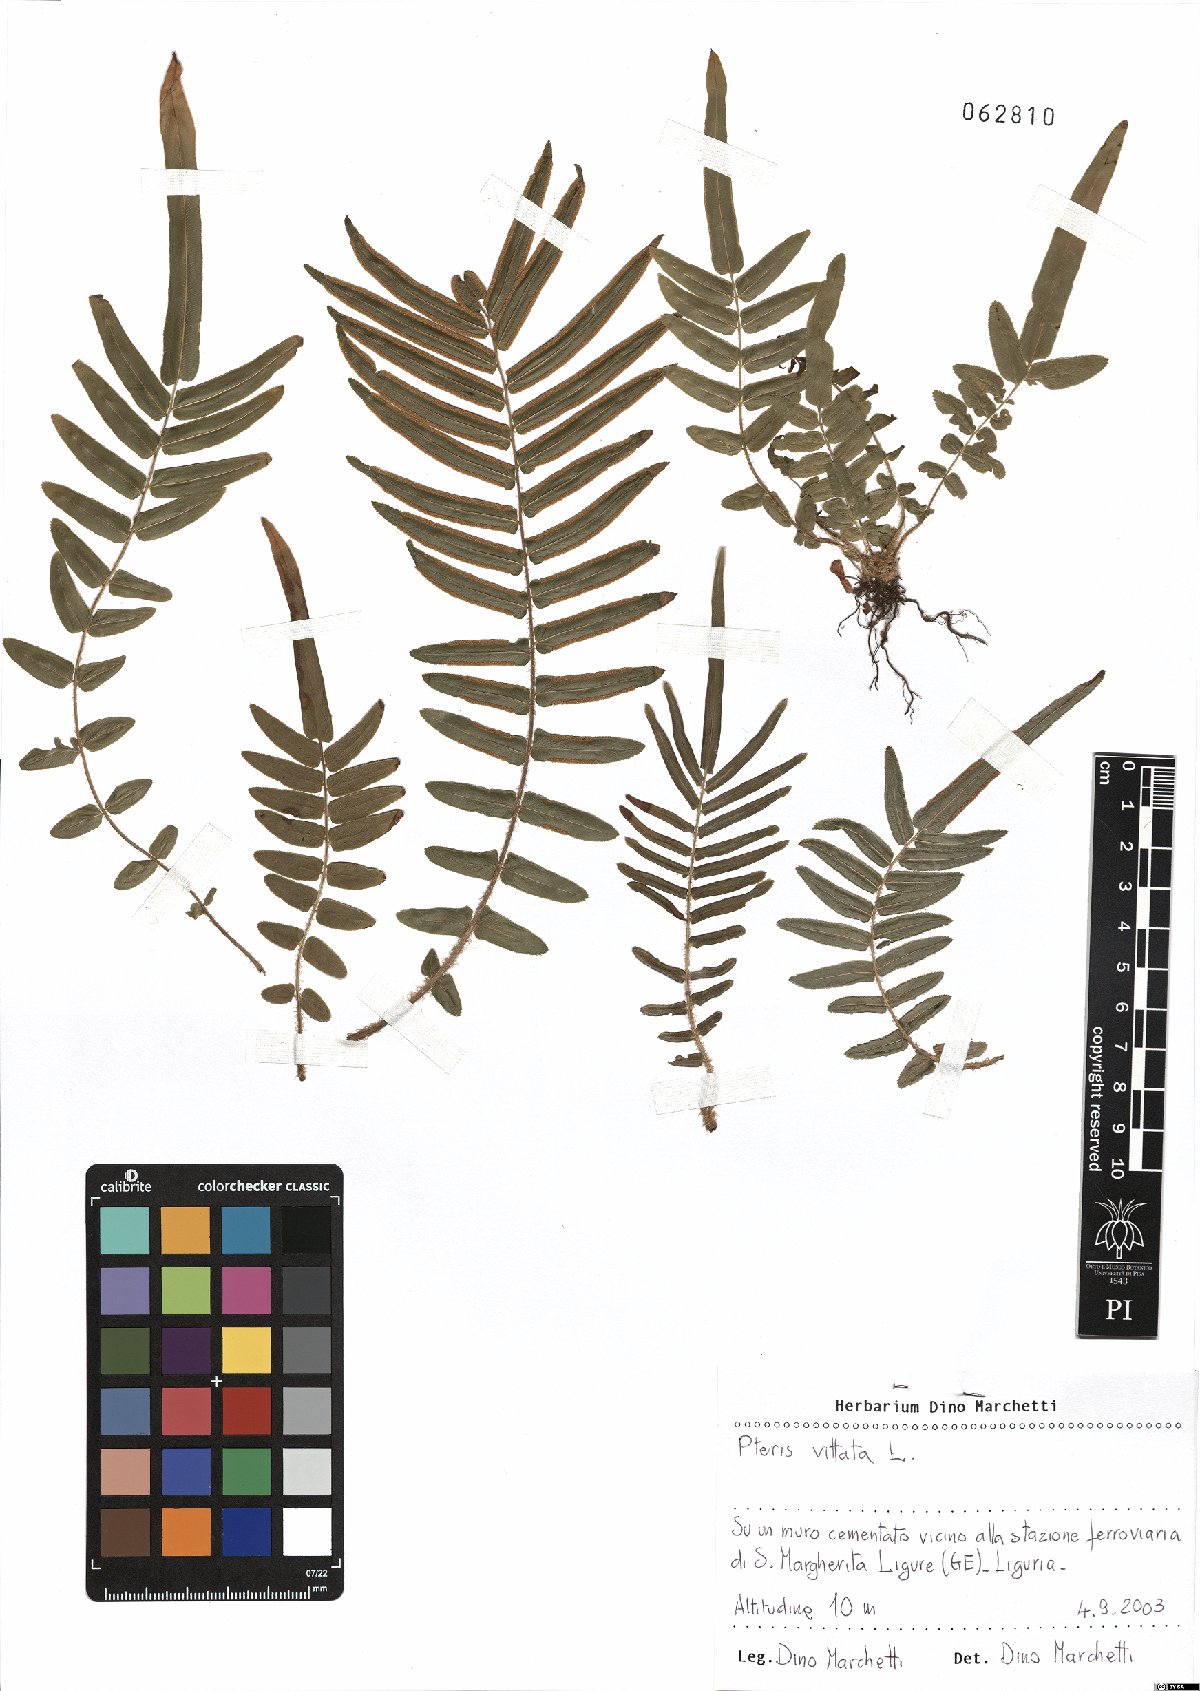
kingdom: Plantae
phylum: Tracheophyta
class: Polypodiopsida
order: Polypodiales
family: Pteridaceae
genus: Pteris
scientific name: Pteris vittata
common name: Ladder brake
